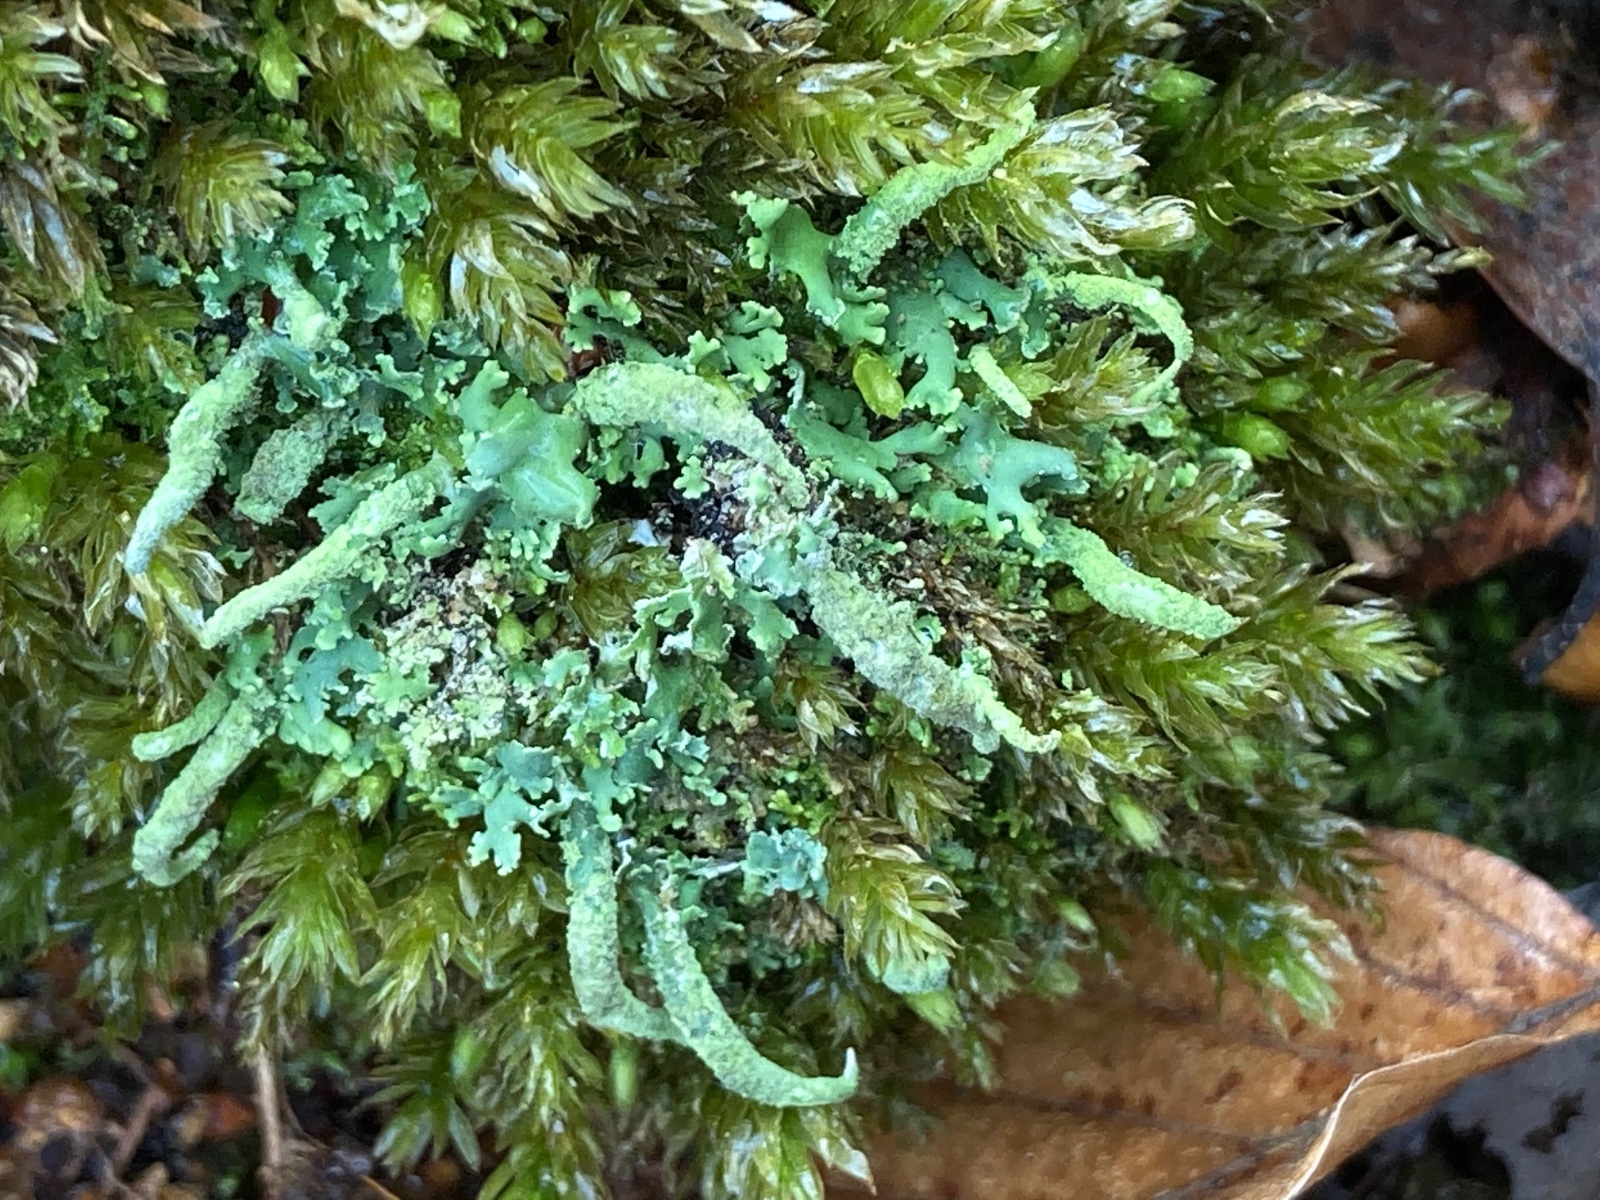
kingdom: Fungi
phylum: Ascomycota
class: Lecanoromycetes
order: Lecanorales
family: Cladoniaceae
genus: Cladonia
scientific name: Cladonia coniocraea
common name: træfods-bægerlav
